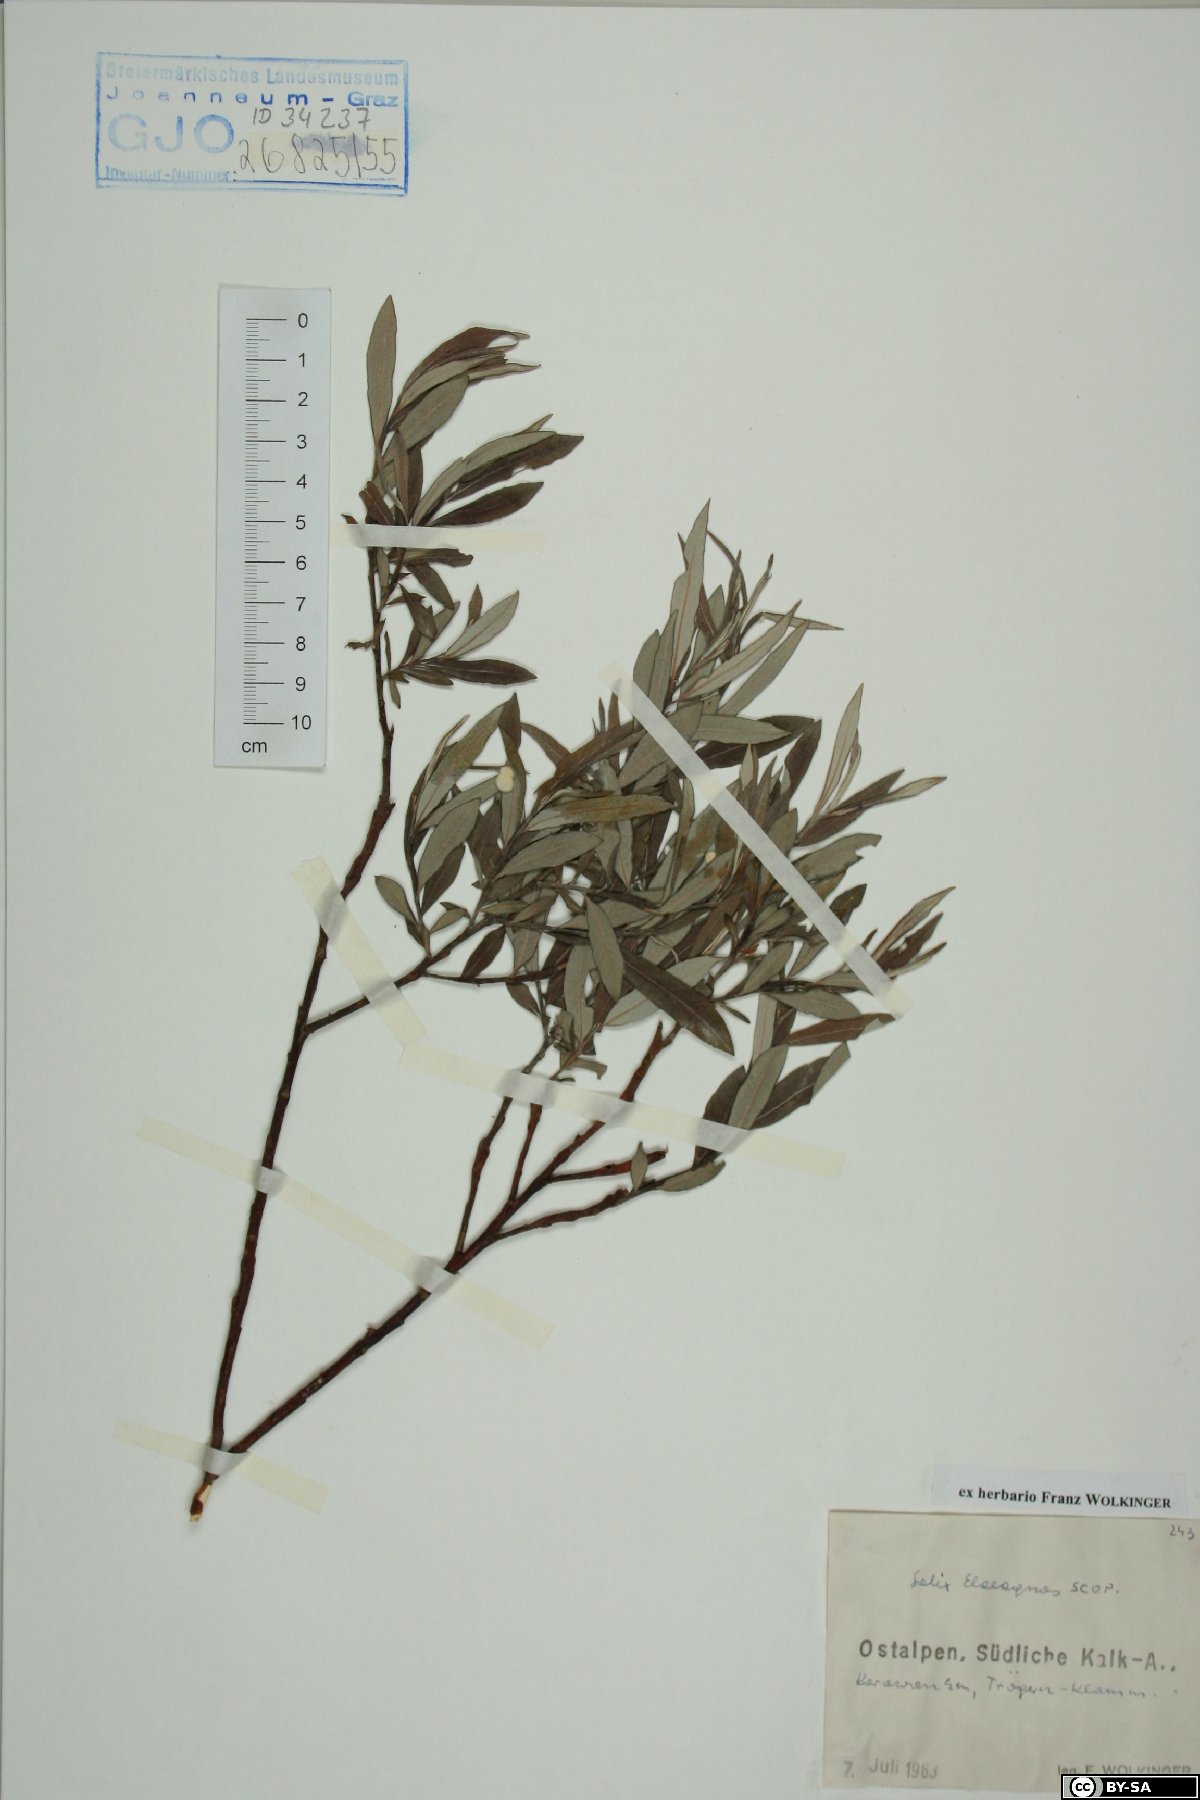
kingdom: Plantae
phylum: Tracheophyta
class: Magnoliopsida
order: Malpighiales
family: Salicaceae
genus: Salix
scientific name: Salix eleagnos
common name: Elaeagnus willow
